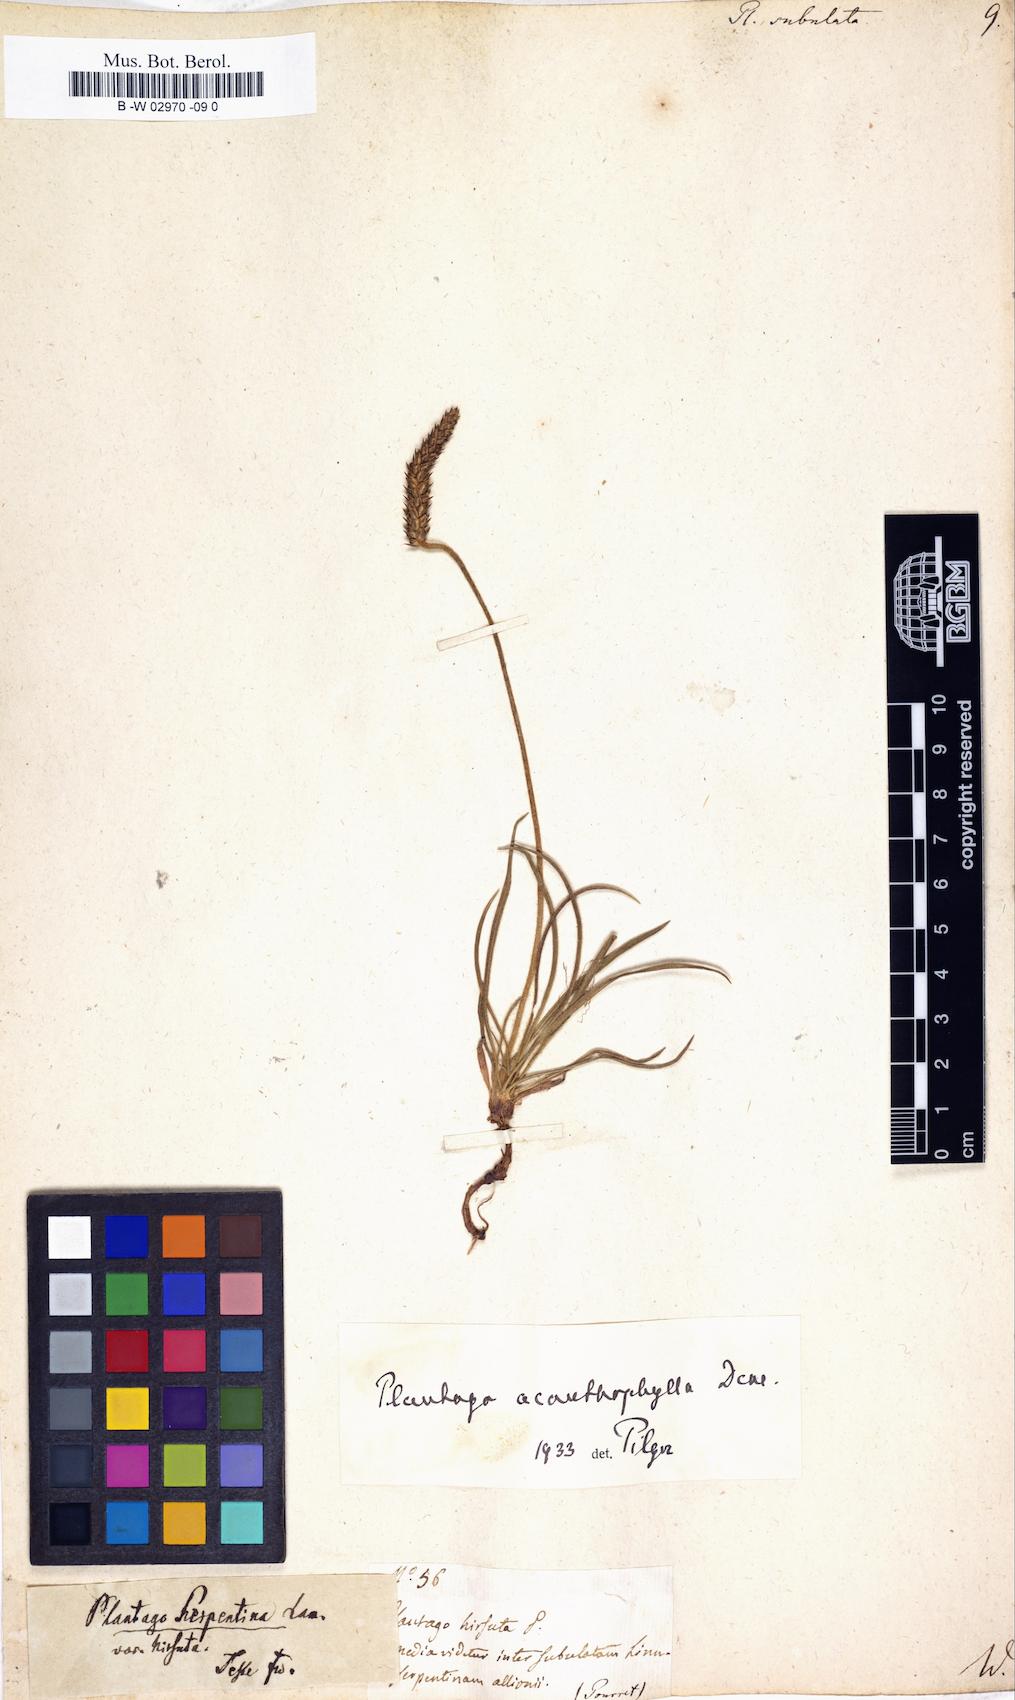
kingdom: Plantae
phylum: Tracheophyta
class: Magnoliopsida
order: Lamiales
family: Plantaginaceae
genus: Plantago
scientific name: Plantago subulata
